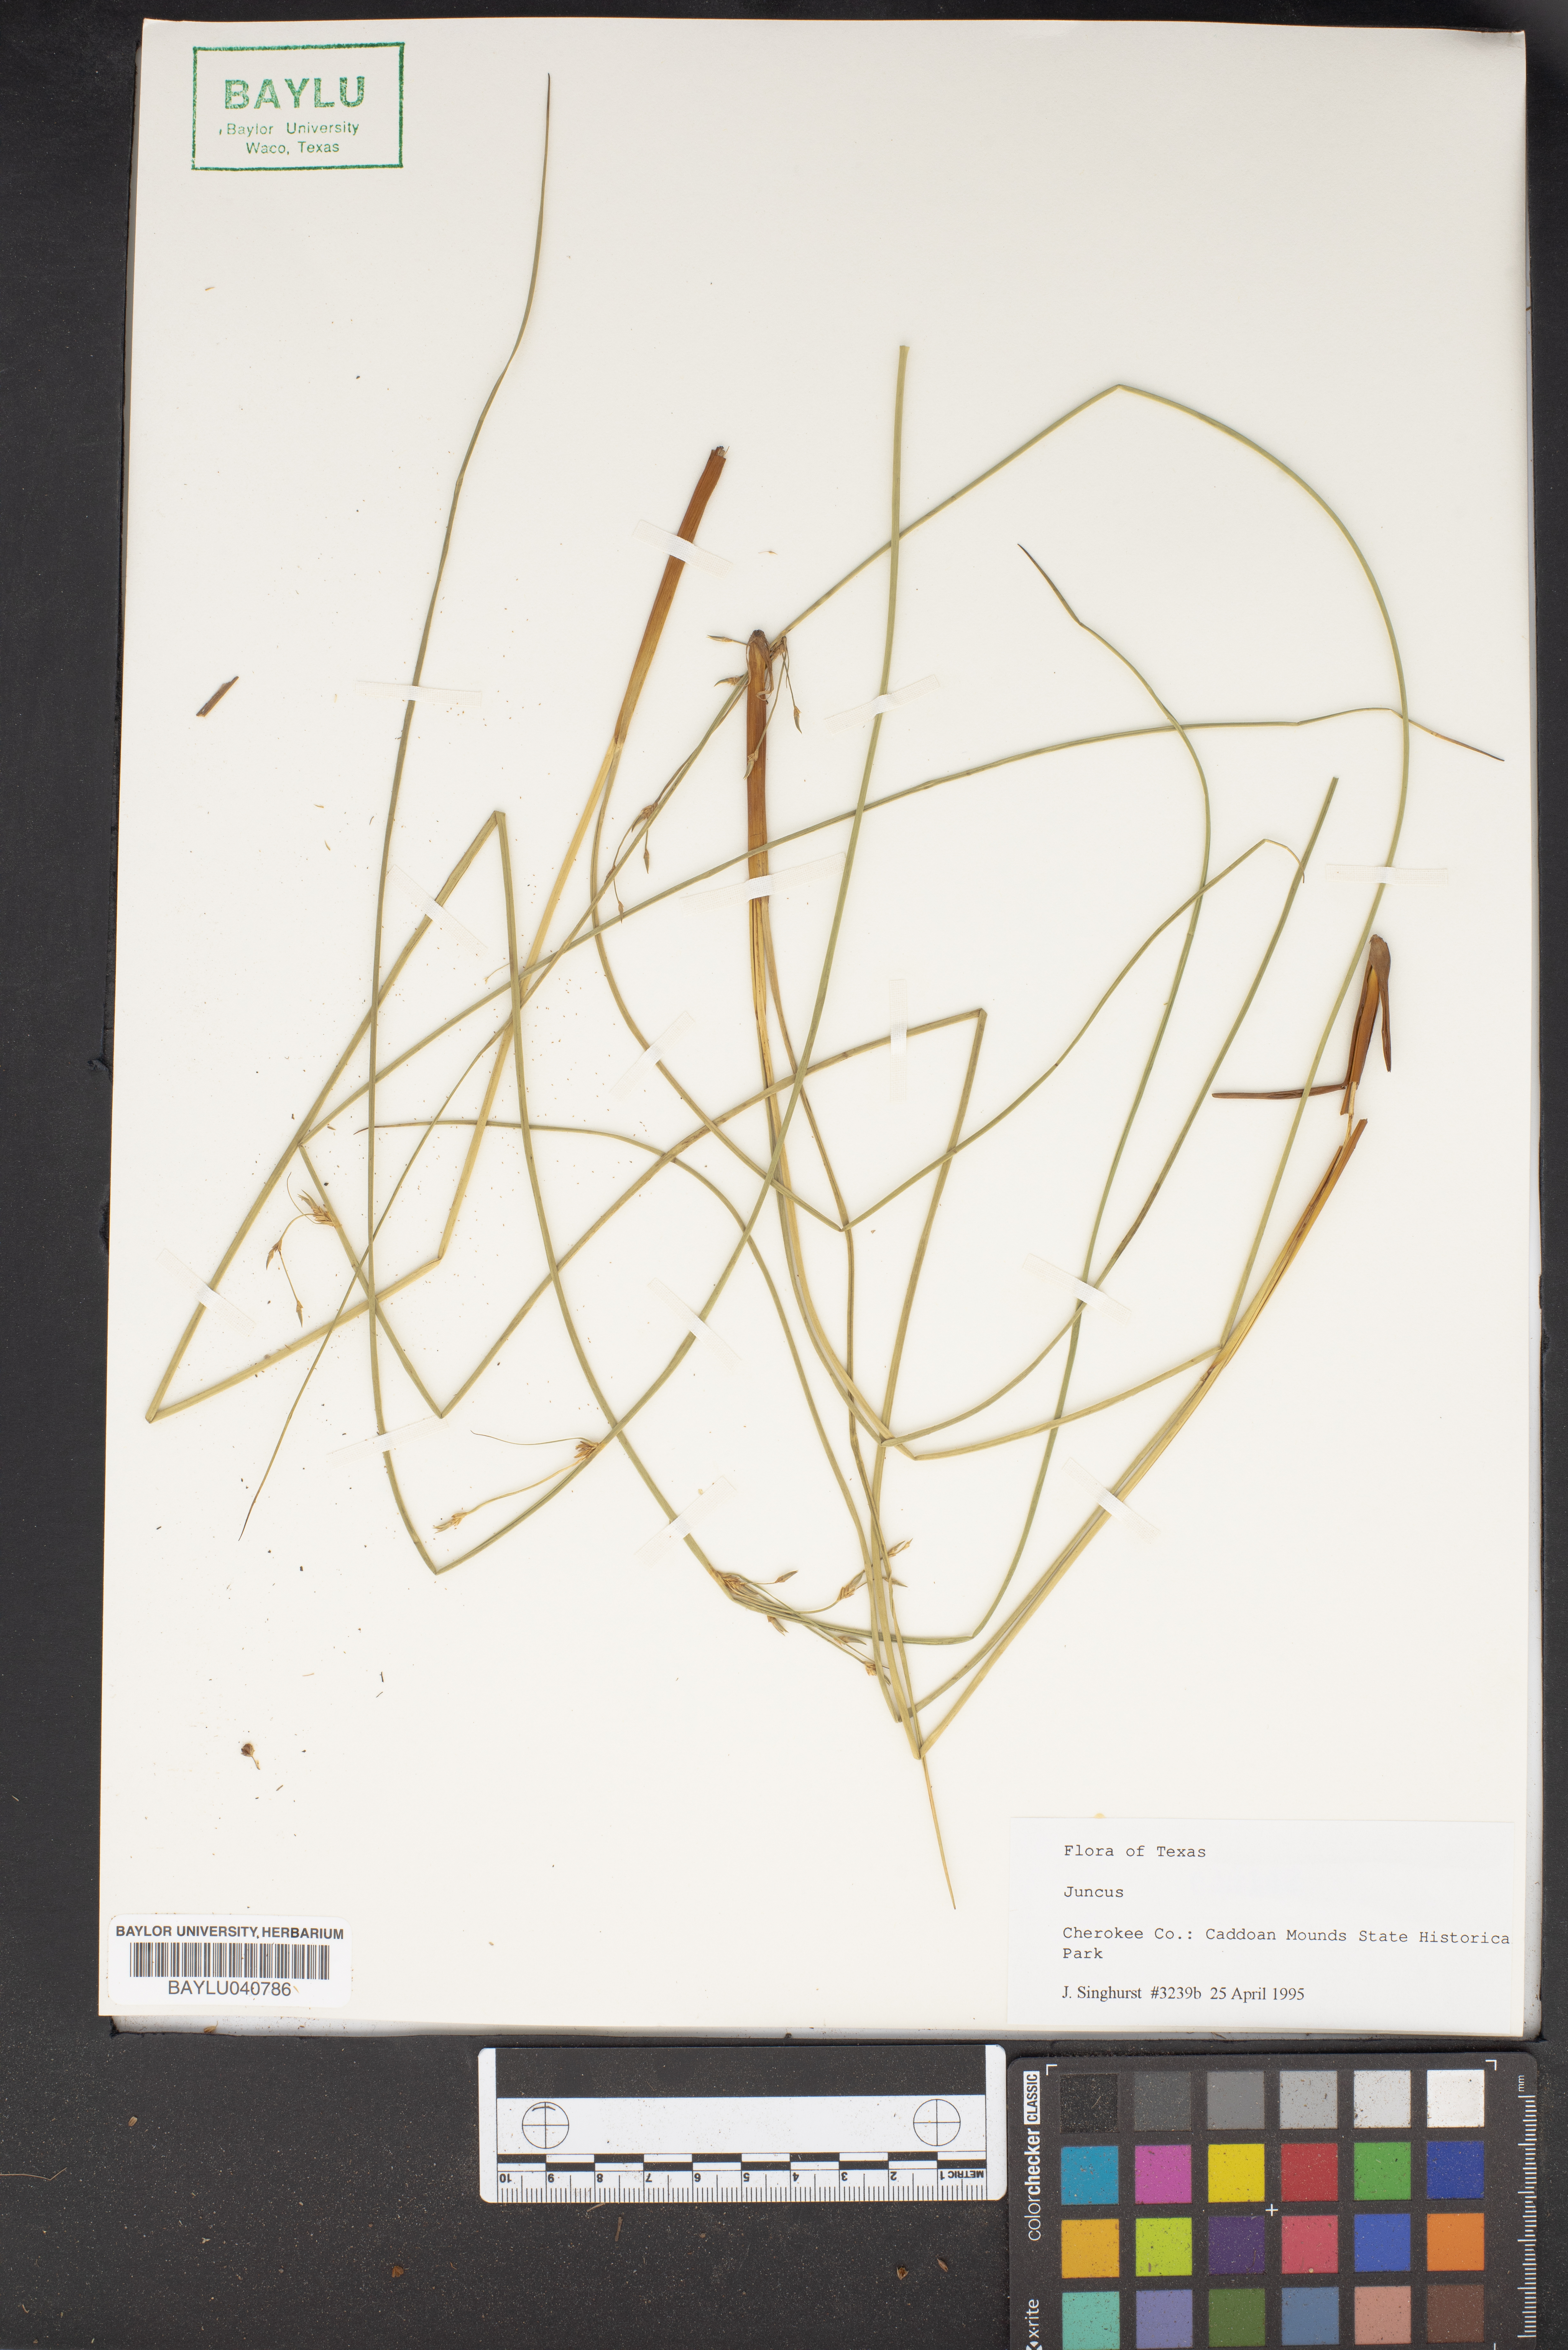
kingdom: Plantae
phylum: Tracheophyta
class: Liliopsida
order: Poales
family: Juncaceae
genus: Juncus
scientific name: Juncus
